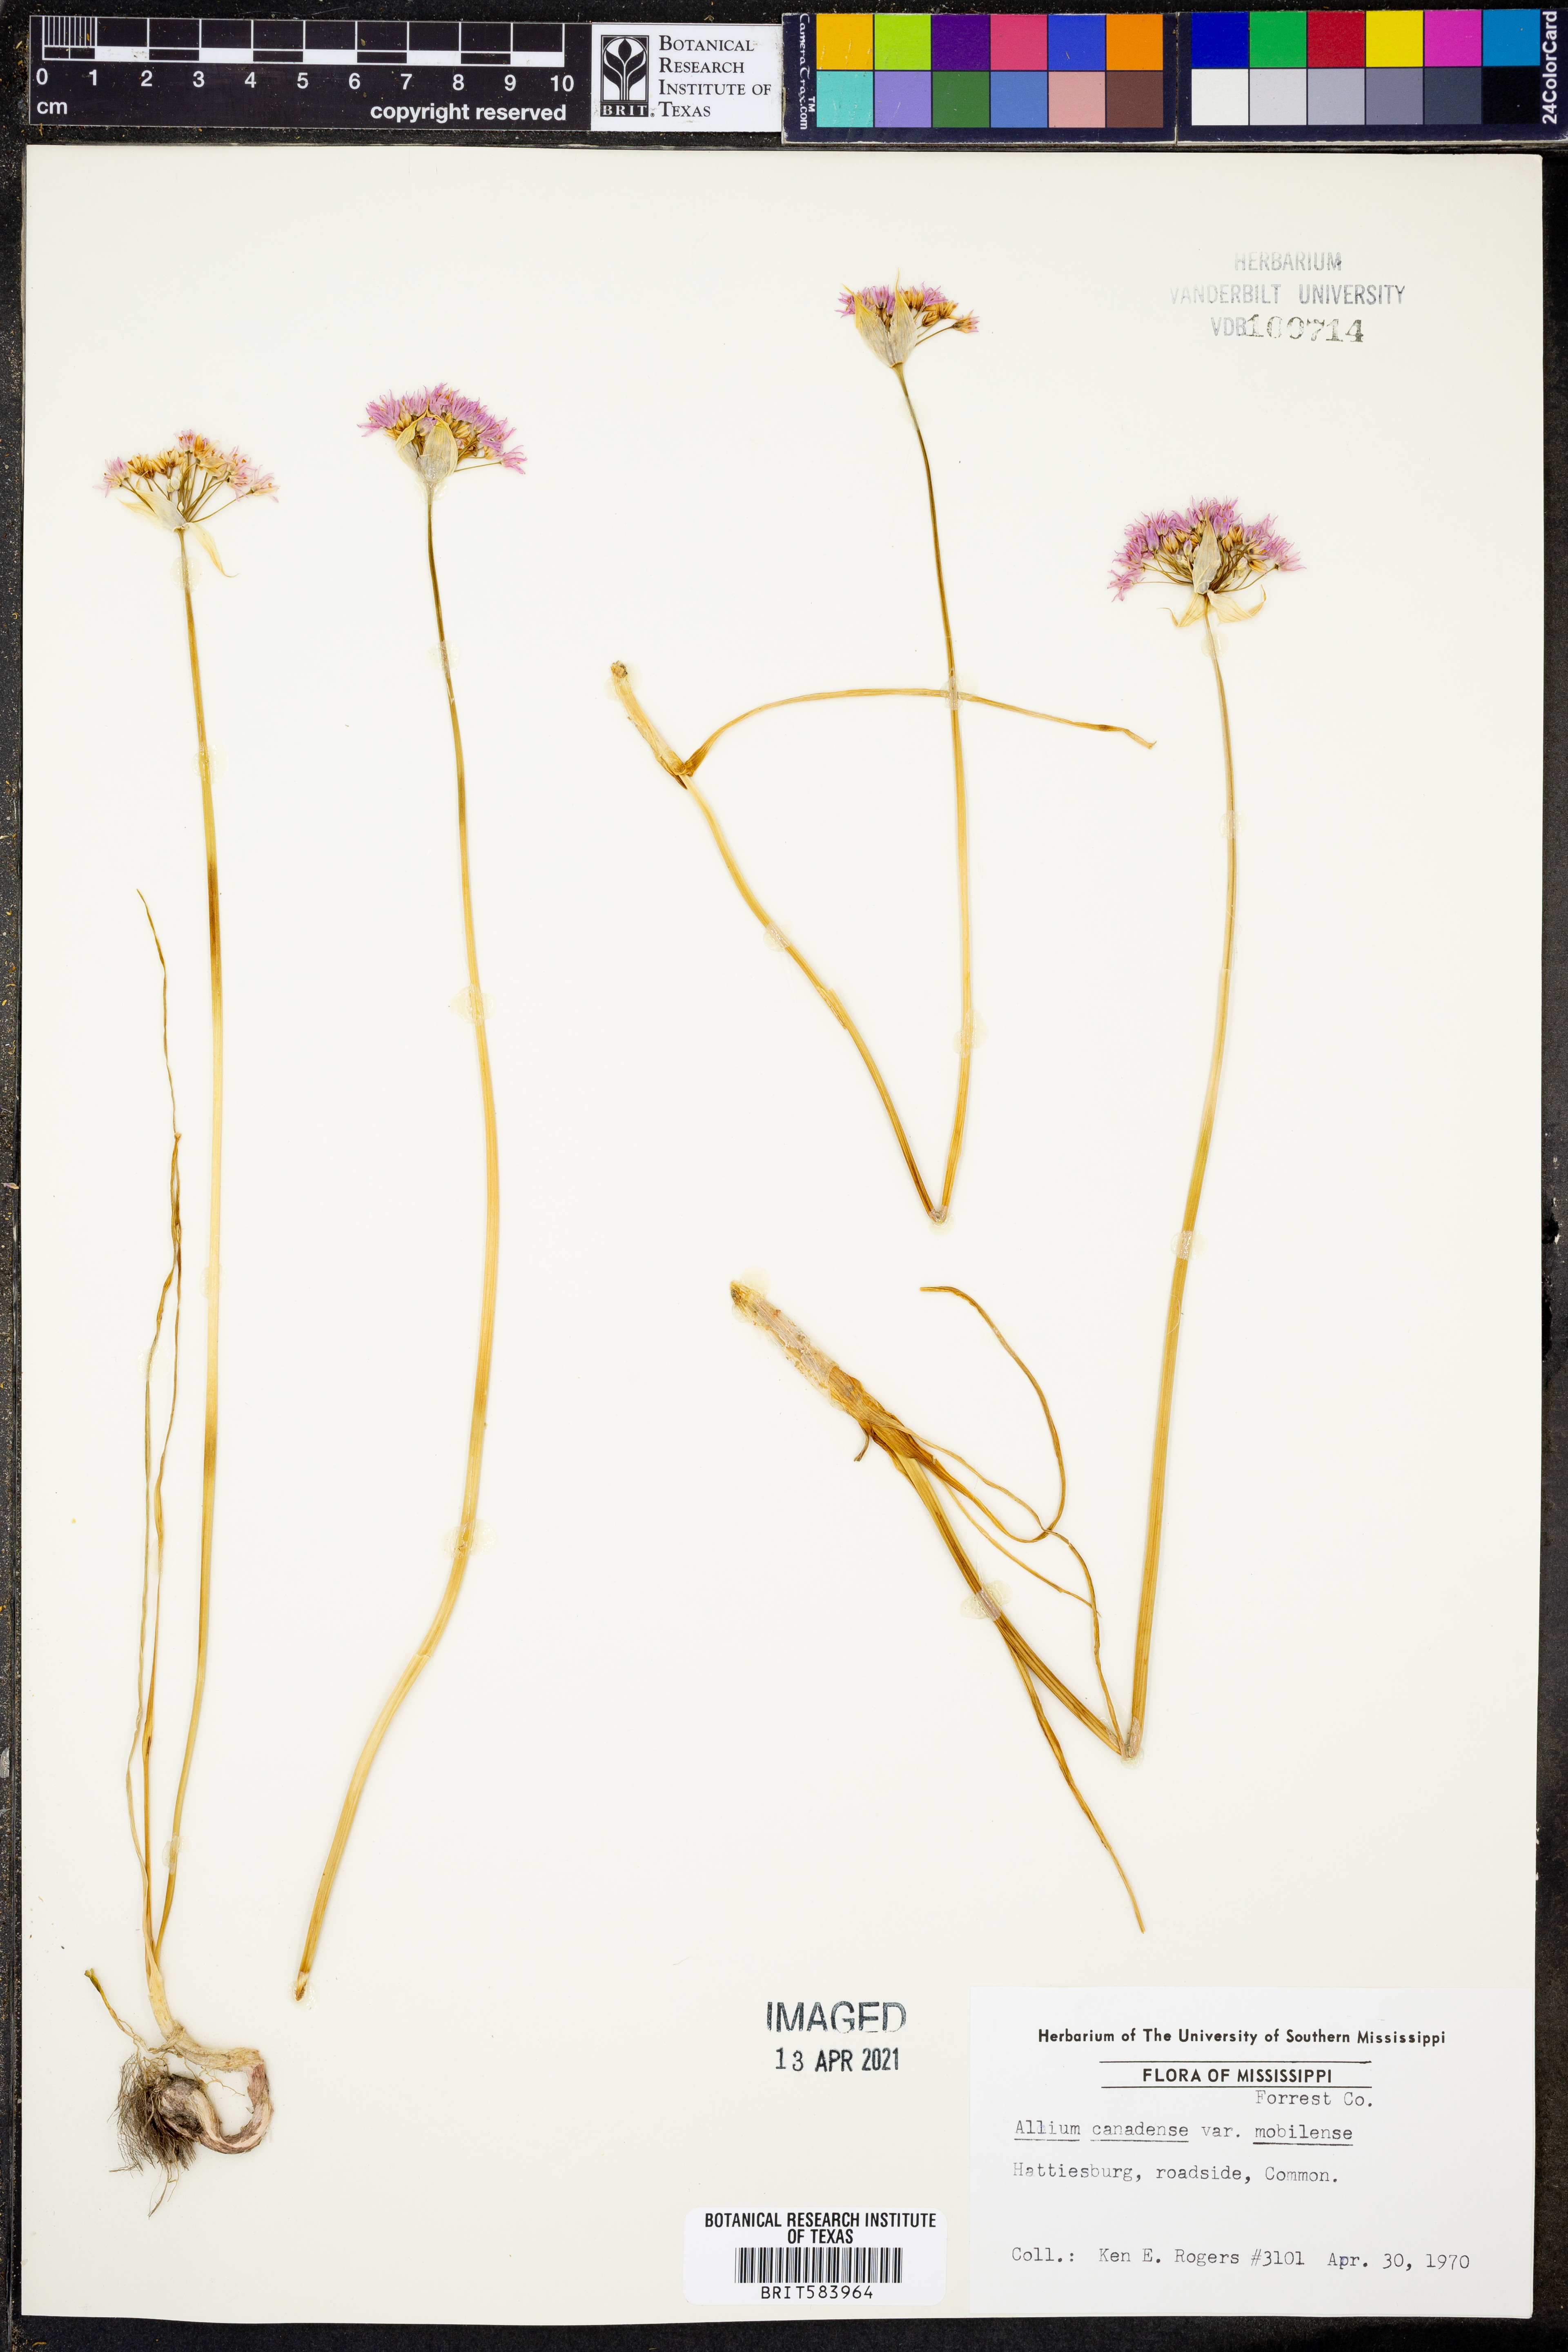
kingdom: Plantae
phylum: Tracheophyta
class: Liliopsida
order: Asparagales
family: Amaryllidaceae
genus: Allium
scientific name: Allium canadense
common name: Meadow garlic
